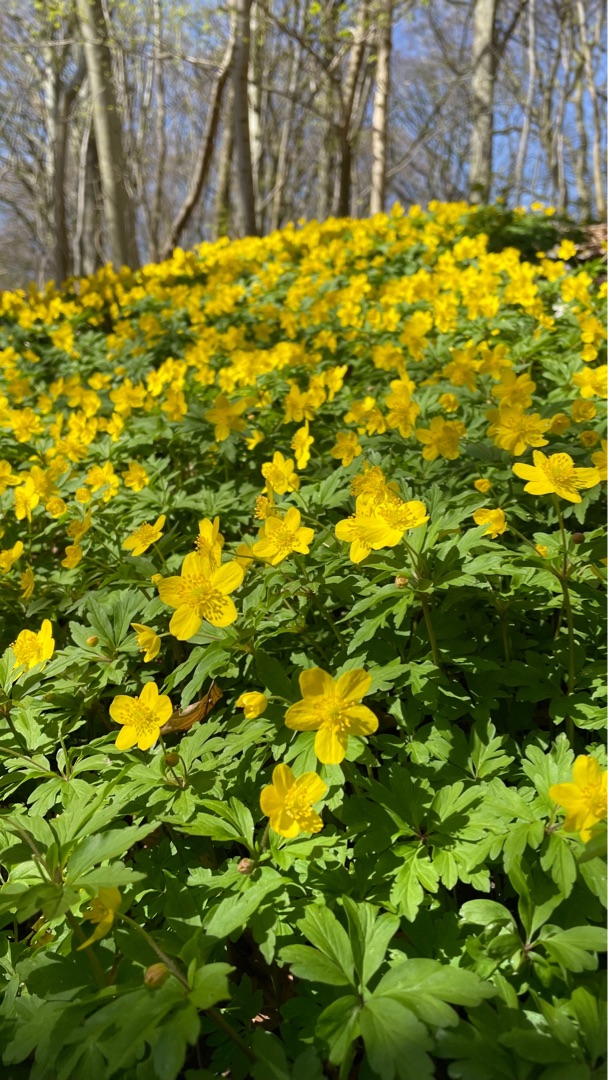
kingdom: Plantae
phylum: Tracheophyta
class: Magnoliopsida
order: Ranunculales
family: Ranunculaceae
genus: Anemone
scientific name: Anemone ranunculoides
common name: Gul anemone
